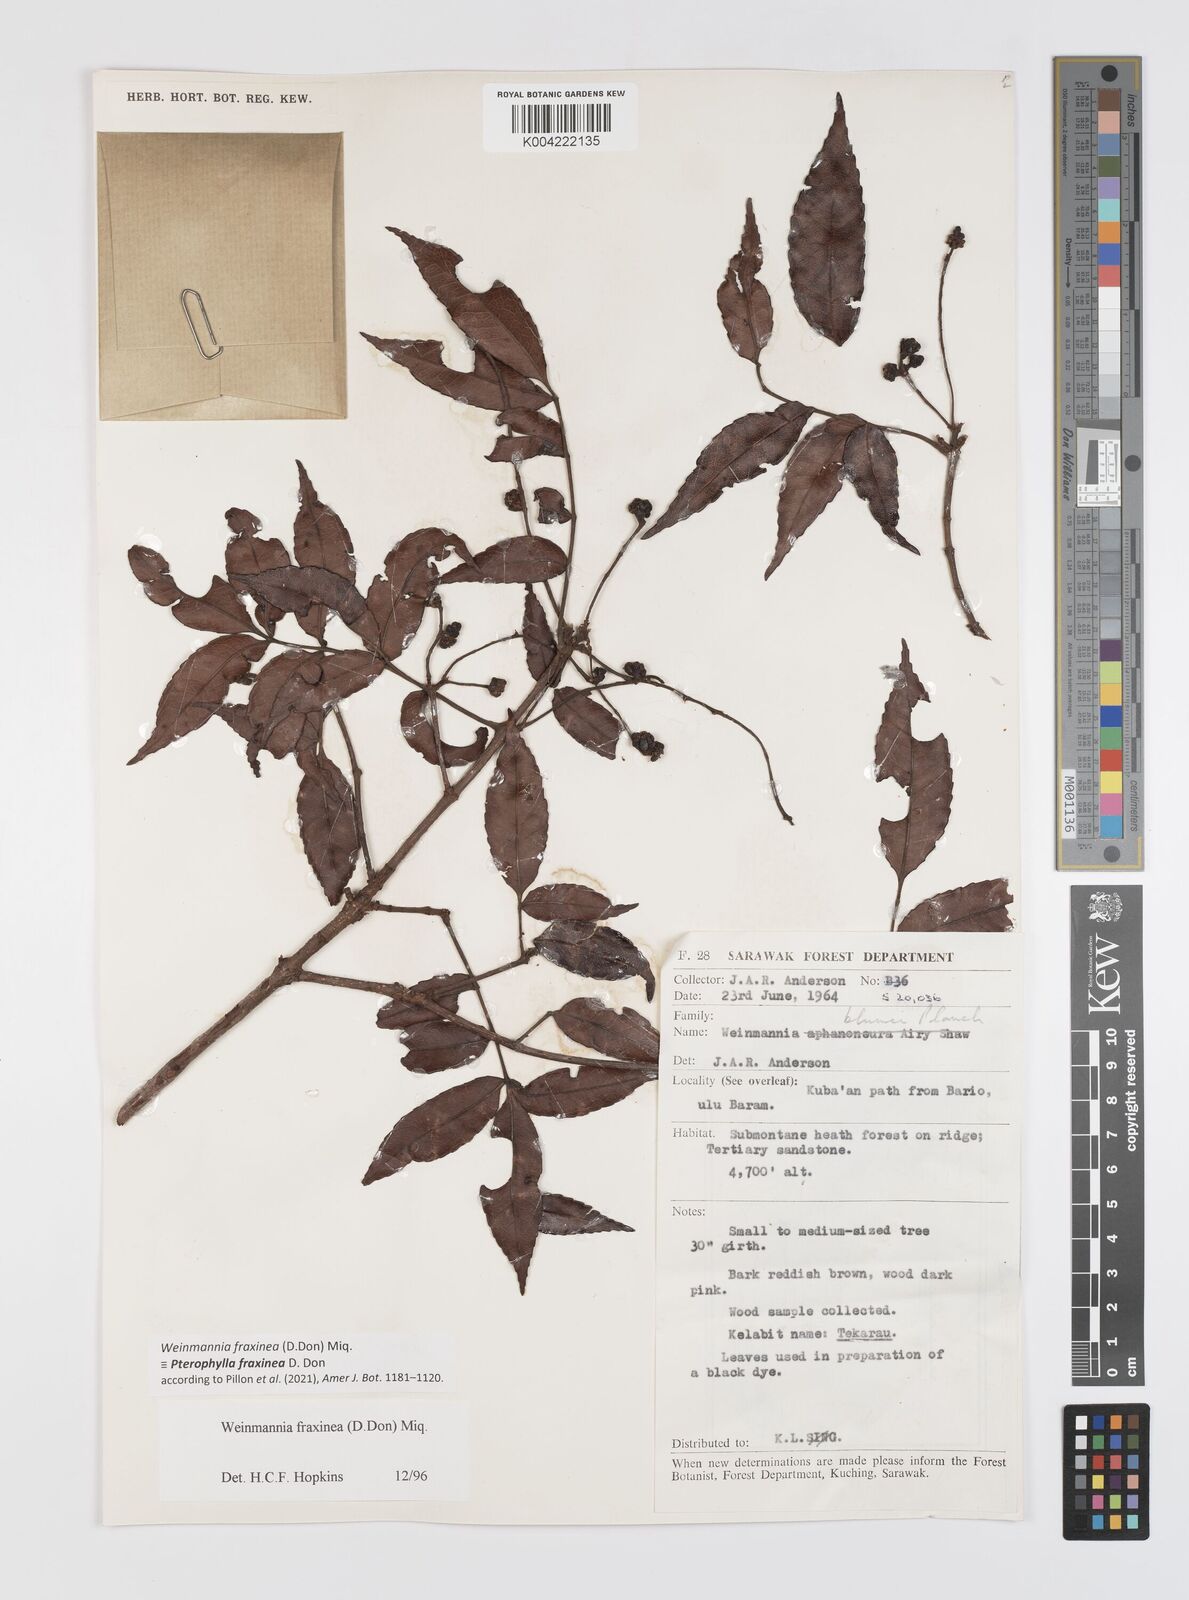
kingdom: Plantae
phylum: Tracheophyta
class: Magnoliopsida
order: Oxalidales
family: Cunoniaceae
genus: Pterophylla
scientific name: Pterophylla fraxinea
